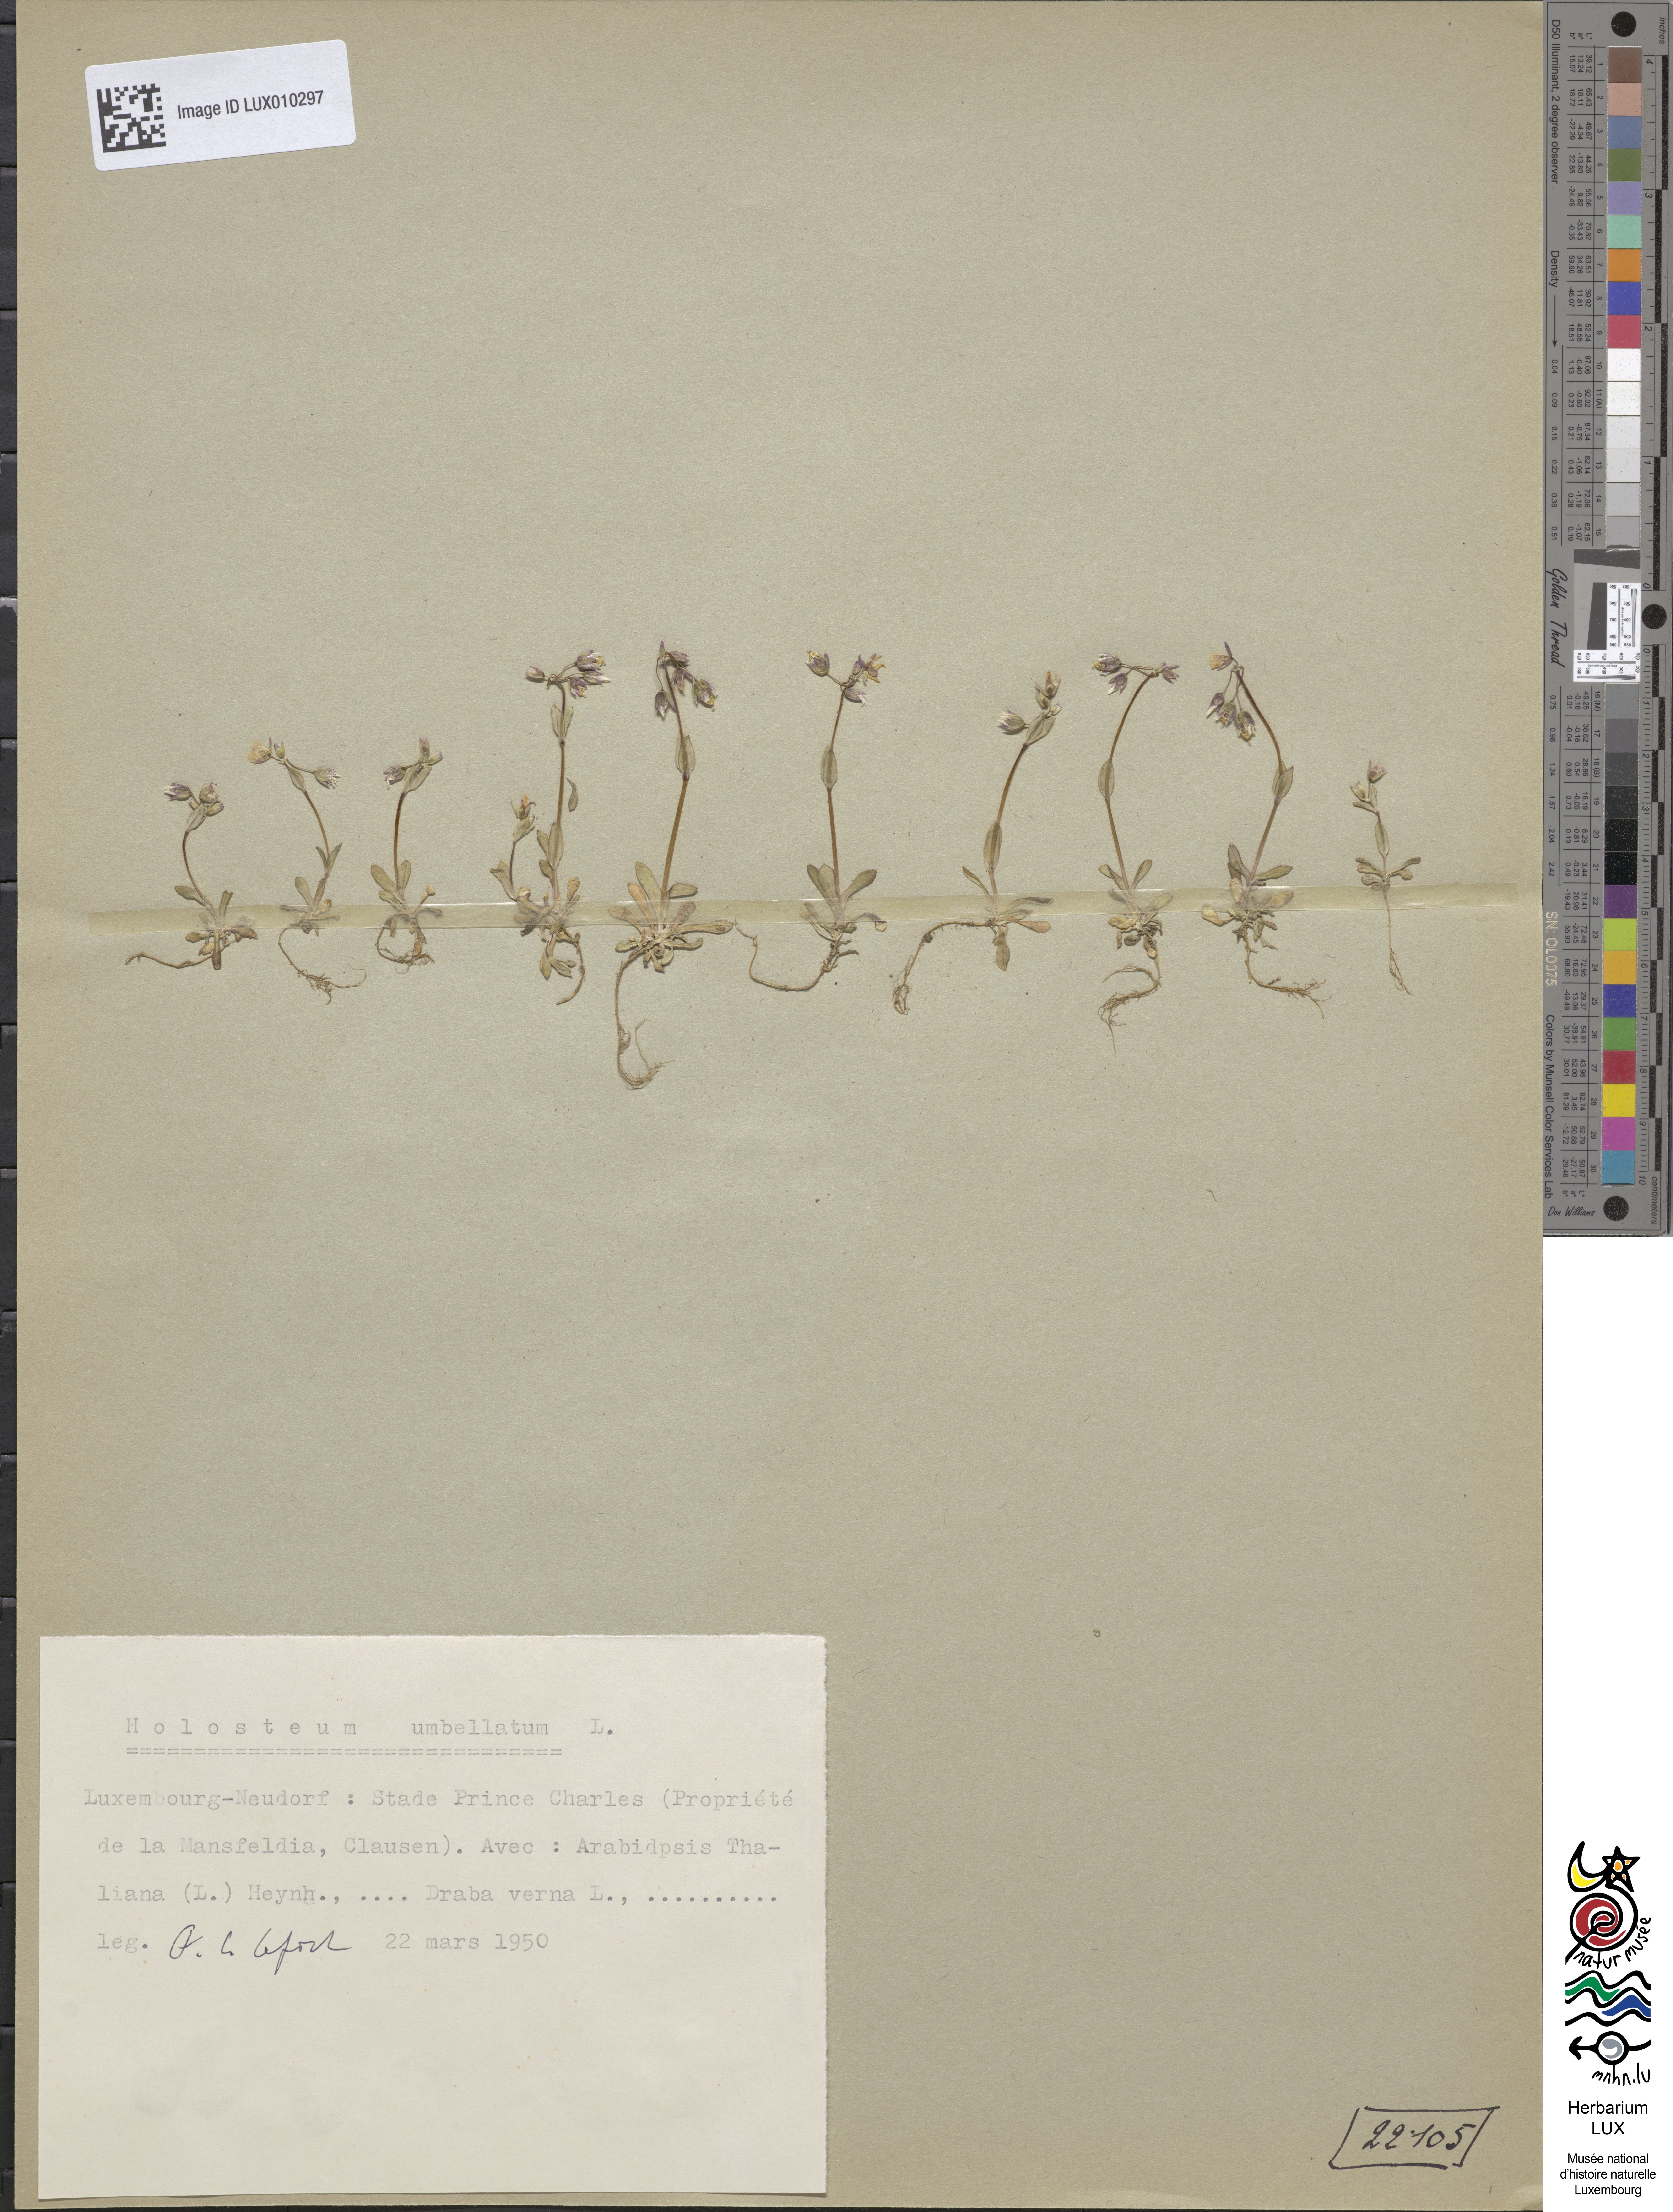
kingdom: Plantae
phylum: Tracheophyta
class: Magnoliopsida
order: Caryophyllales
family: Caryophyllaceae
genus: Holosteum
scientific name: Holosteum umbellatum
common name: Jagged chickweed
